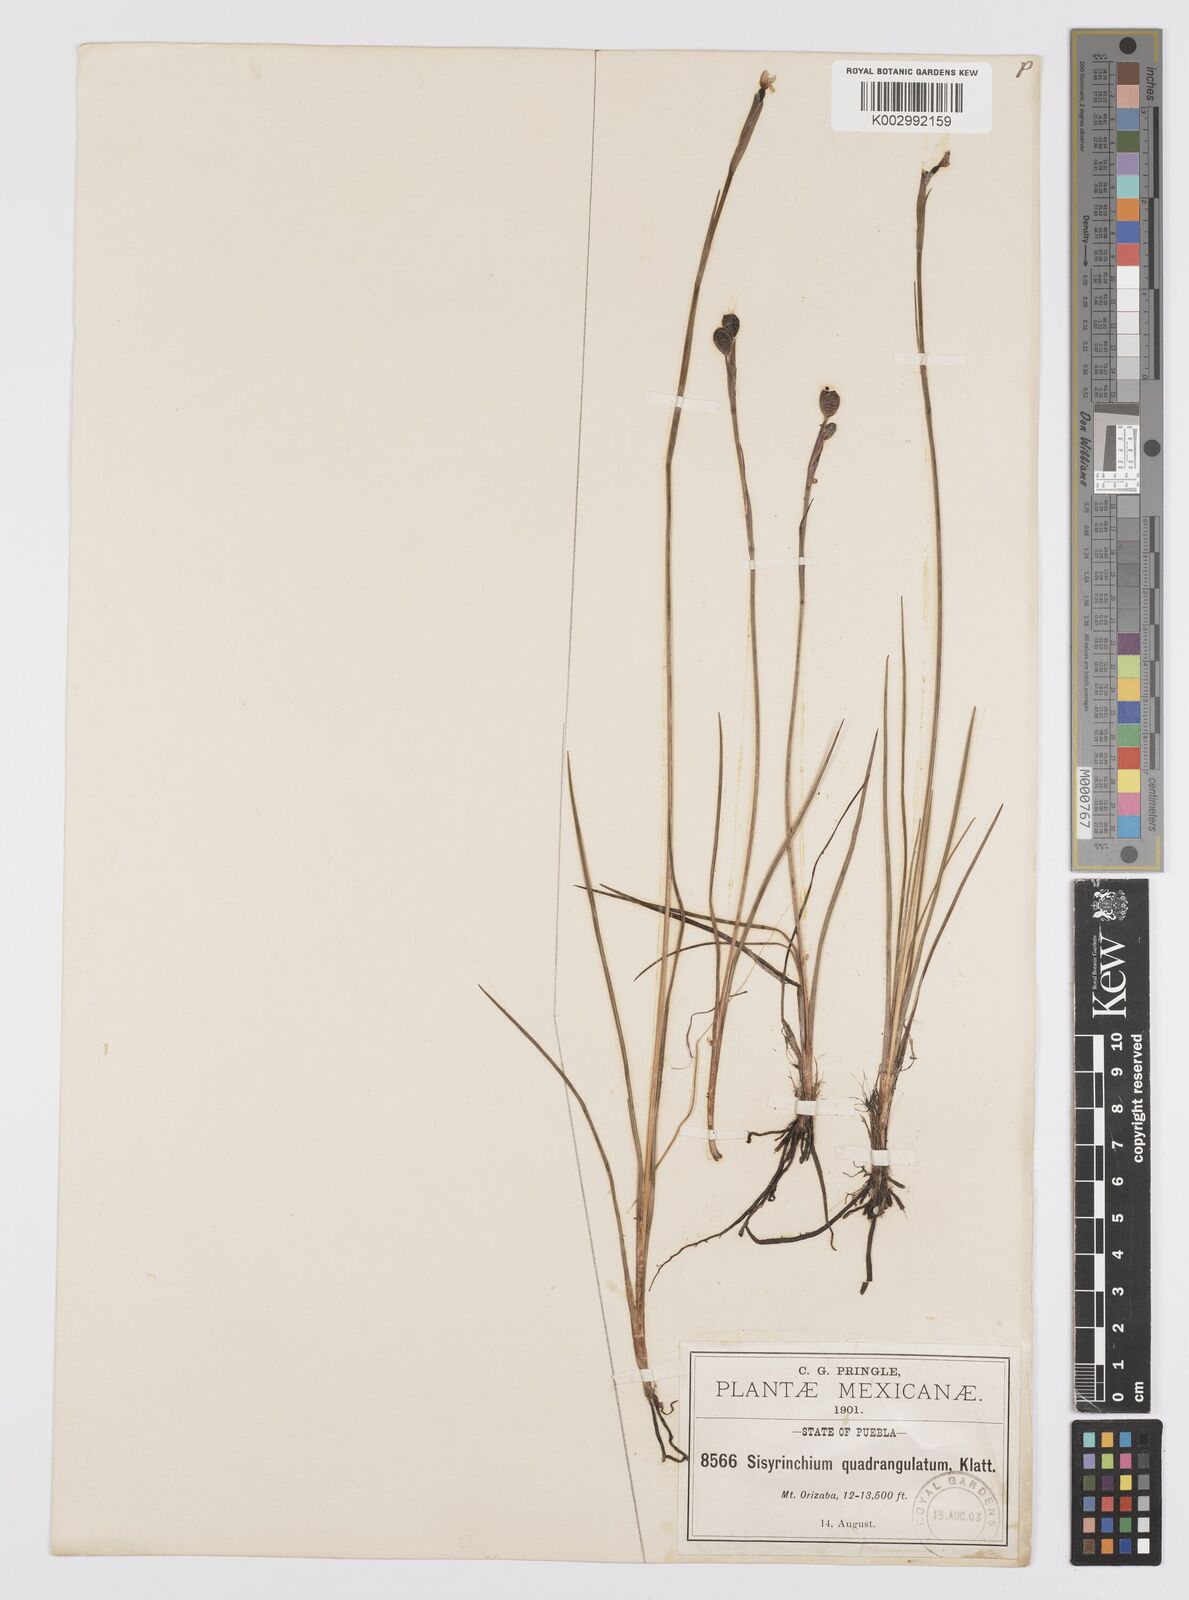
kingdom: Plantae
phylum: Tracheophyta
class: Liliopsida
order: Asparagales
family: Iridaceae
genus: Sisyrinchium
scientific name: Sisyrinchium quadrangulatum
